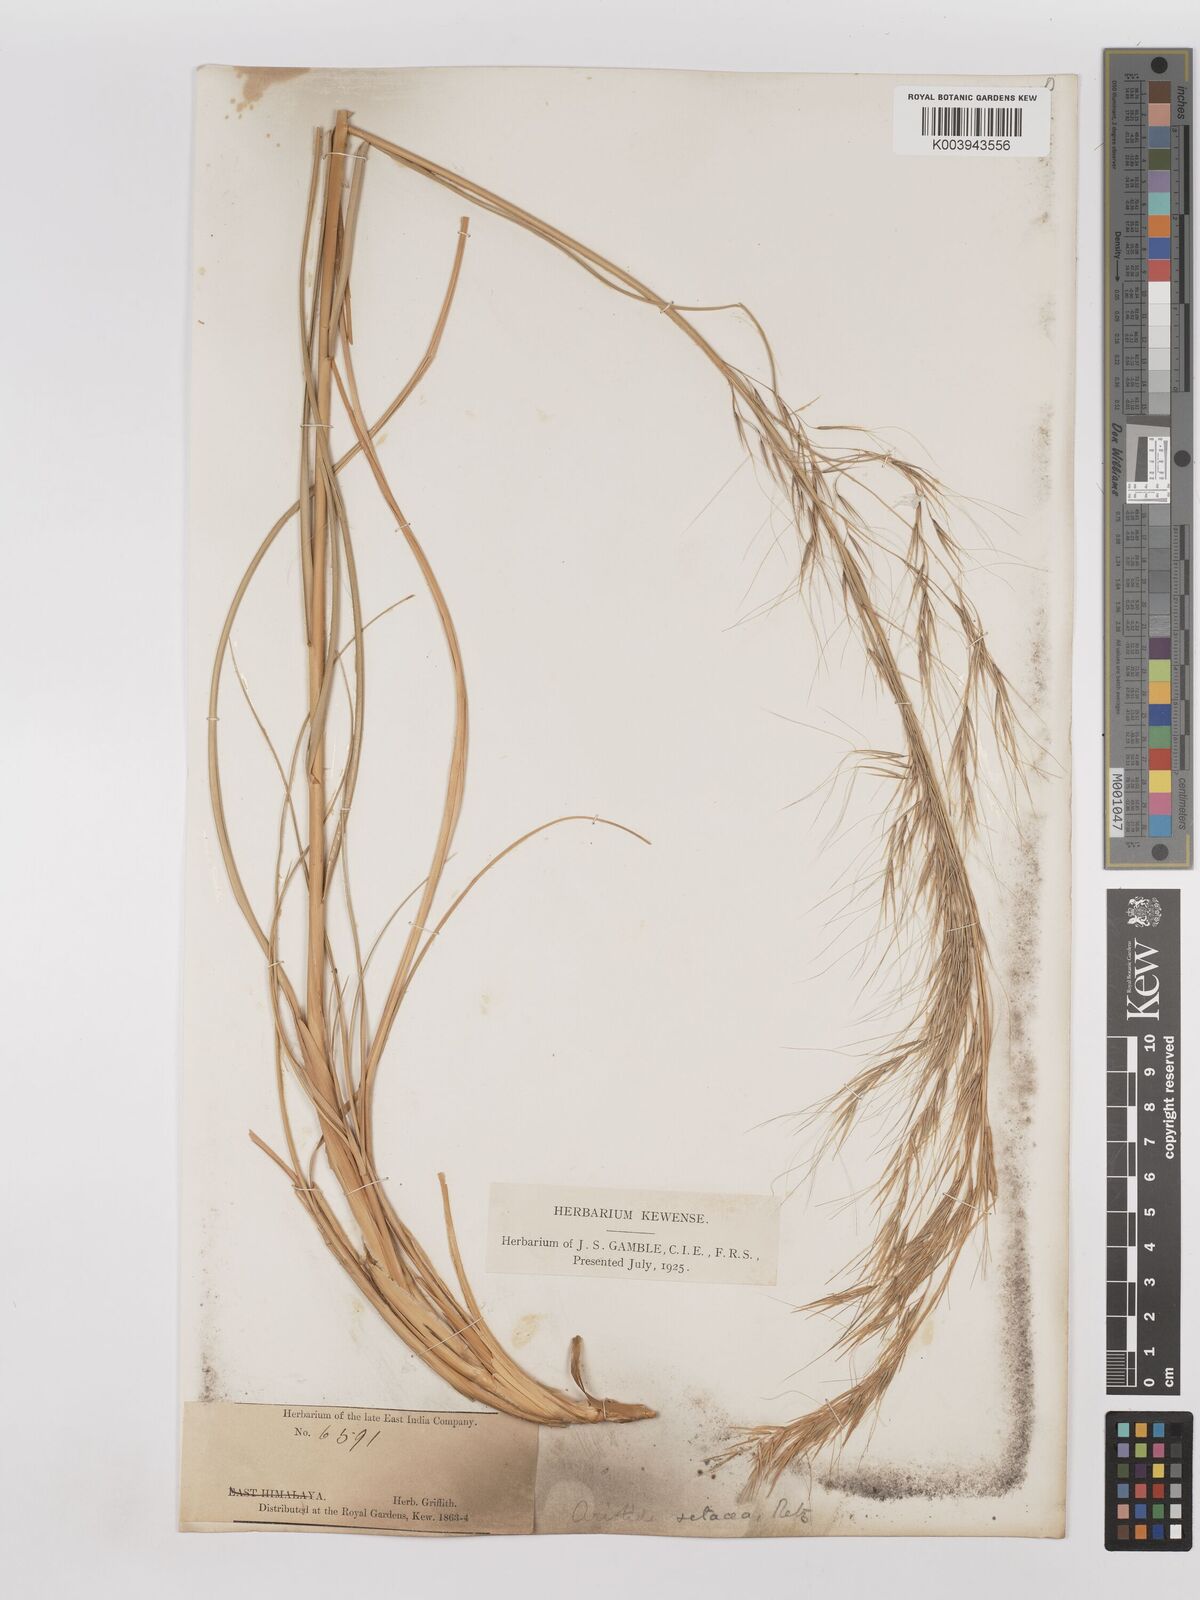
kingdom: Plantae
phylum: Tracheophyta
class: Liliopsida
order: Poales
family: Poaceae
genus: Aristida
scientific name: Aristida setacea
